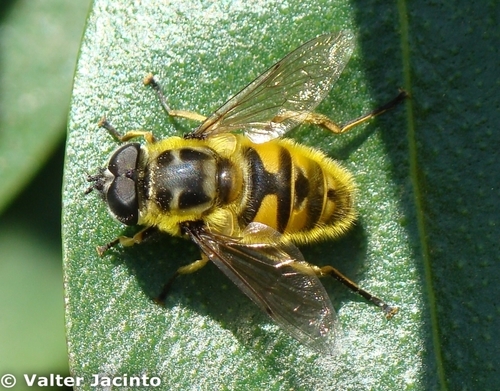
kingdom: Animalia
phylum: Arthropoda
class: Insecta
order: Diptera
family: Syrphidae
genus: Myathropa
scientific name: Myathropa florea
